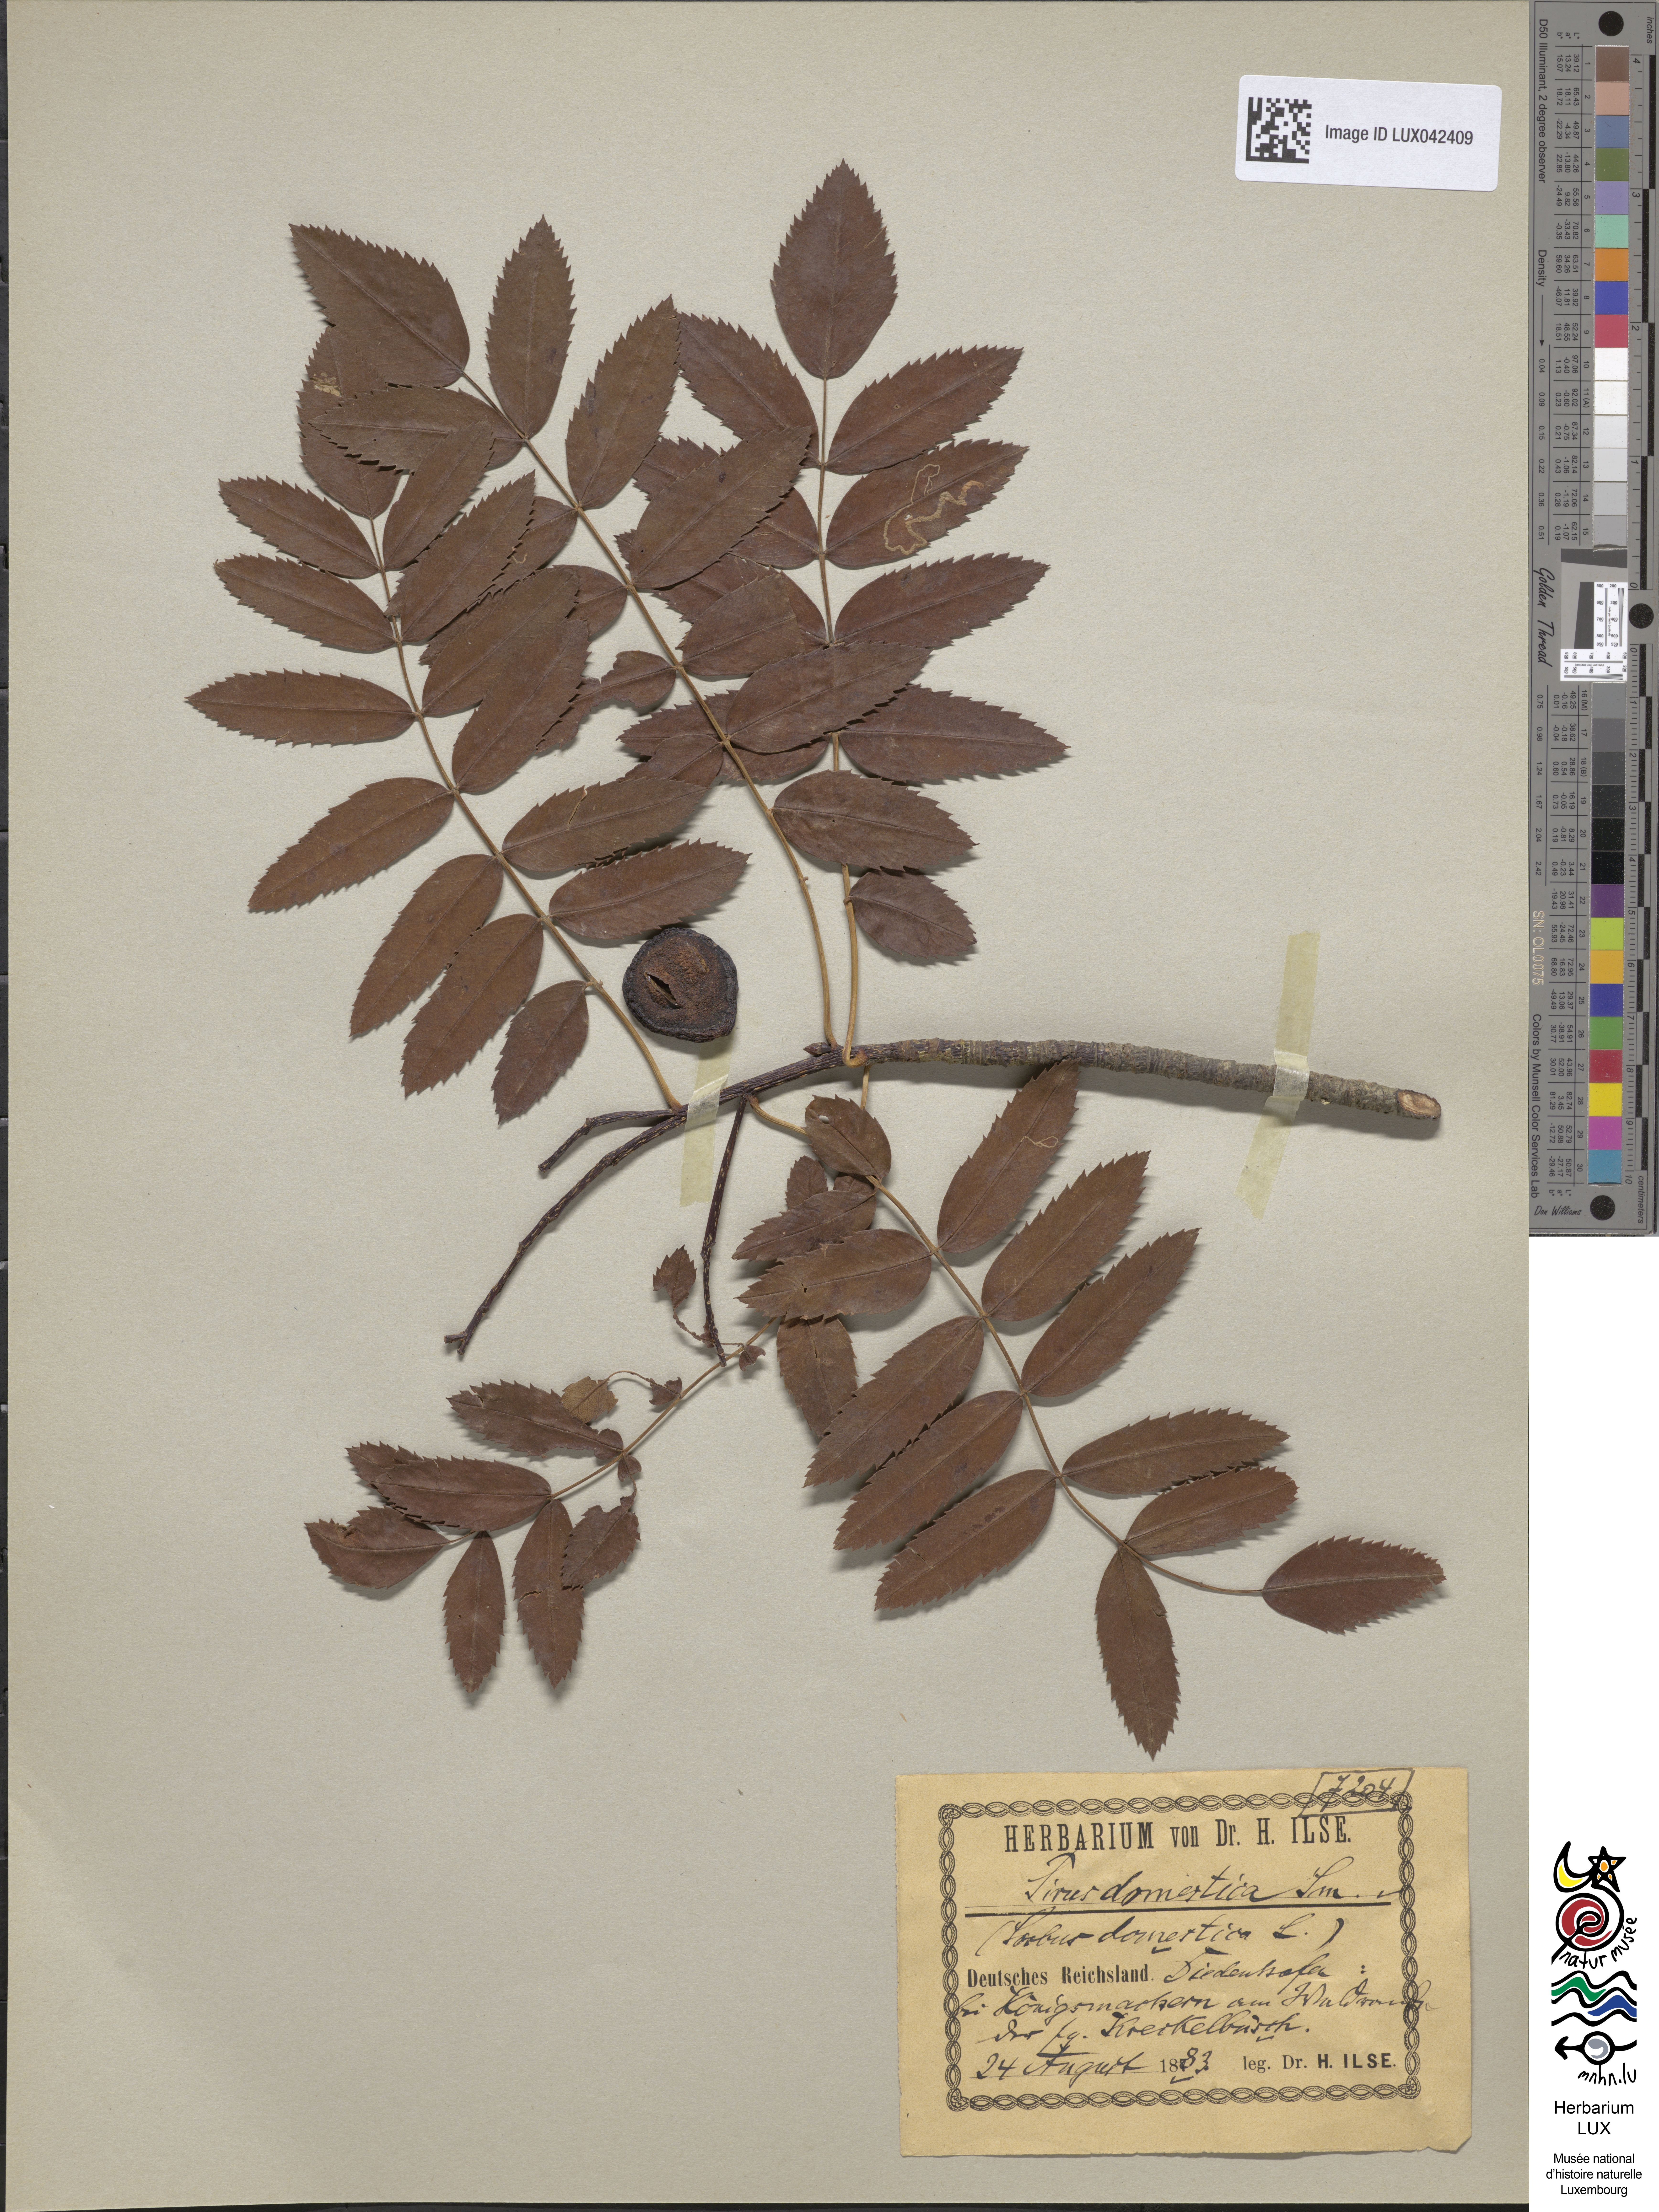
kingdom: Plantae
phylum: Tracheophyta
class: Magnoliopsida
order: Rosales
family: Rosaceae
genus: Cormus
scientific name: Cormus domestica
